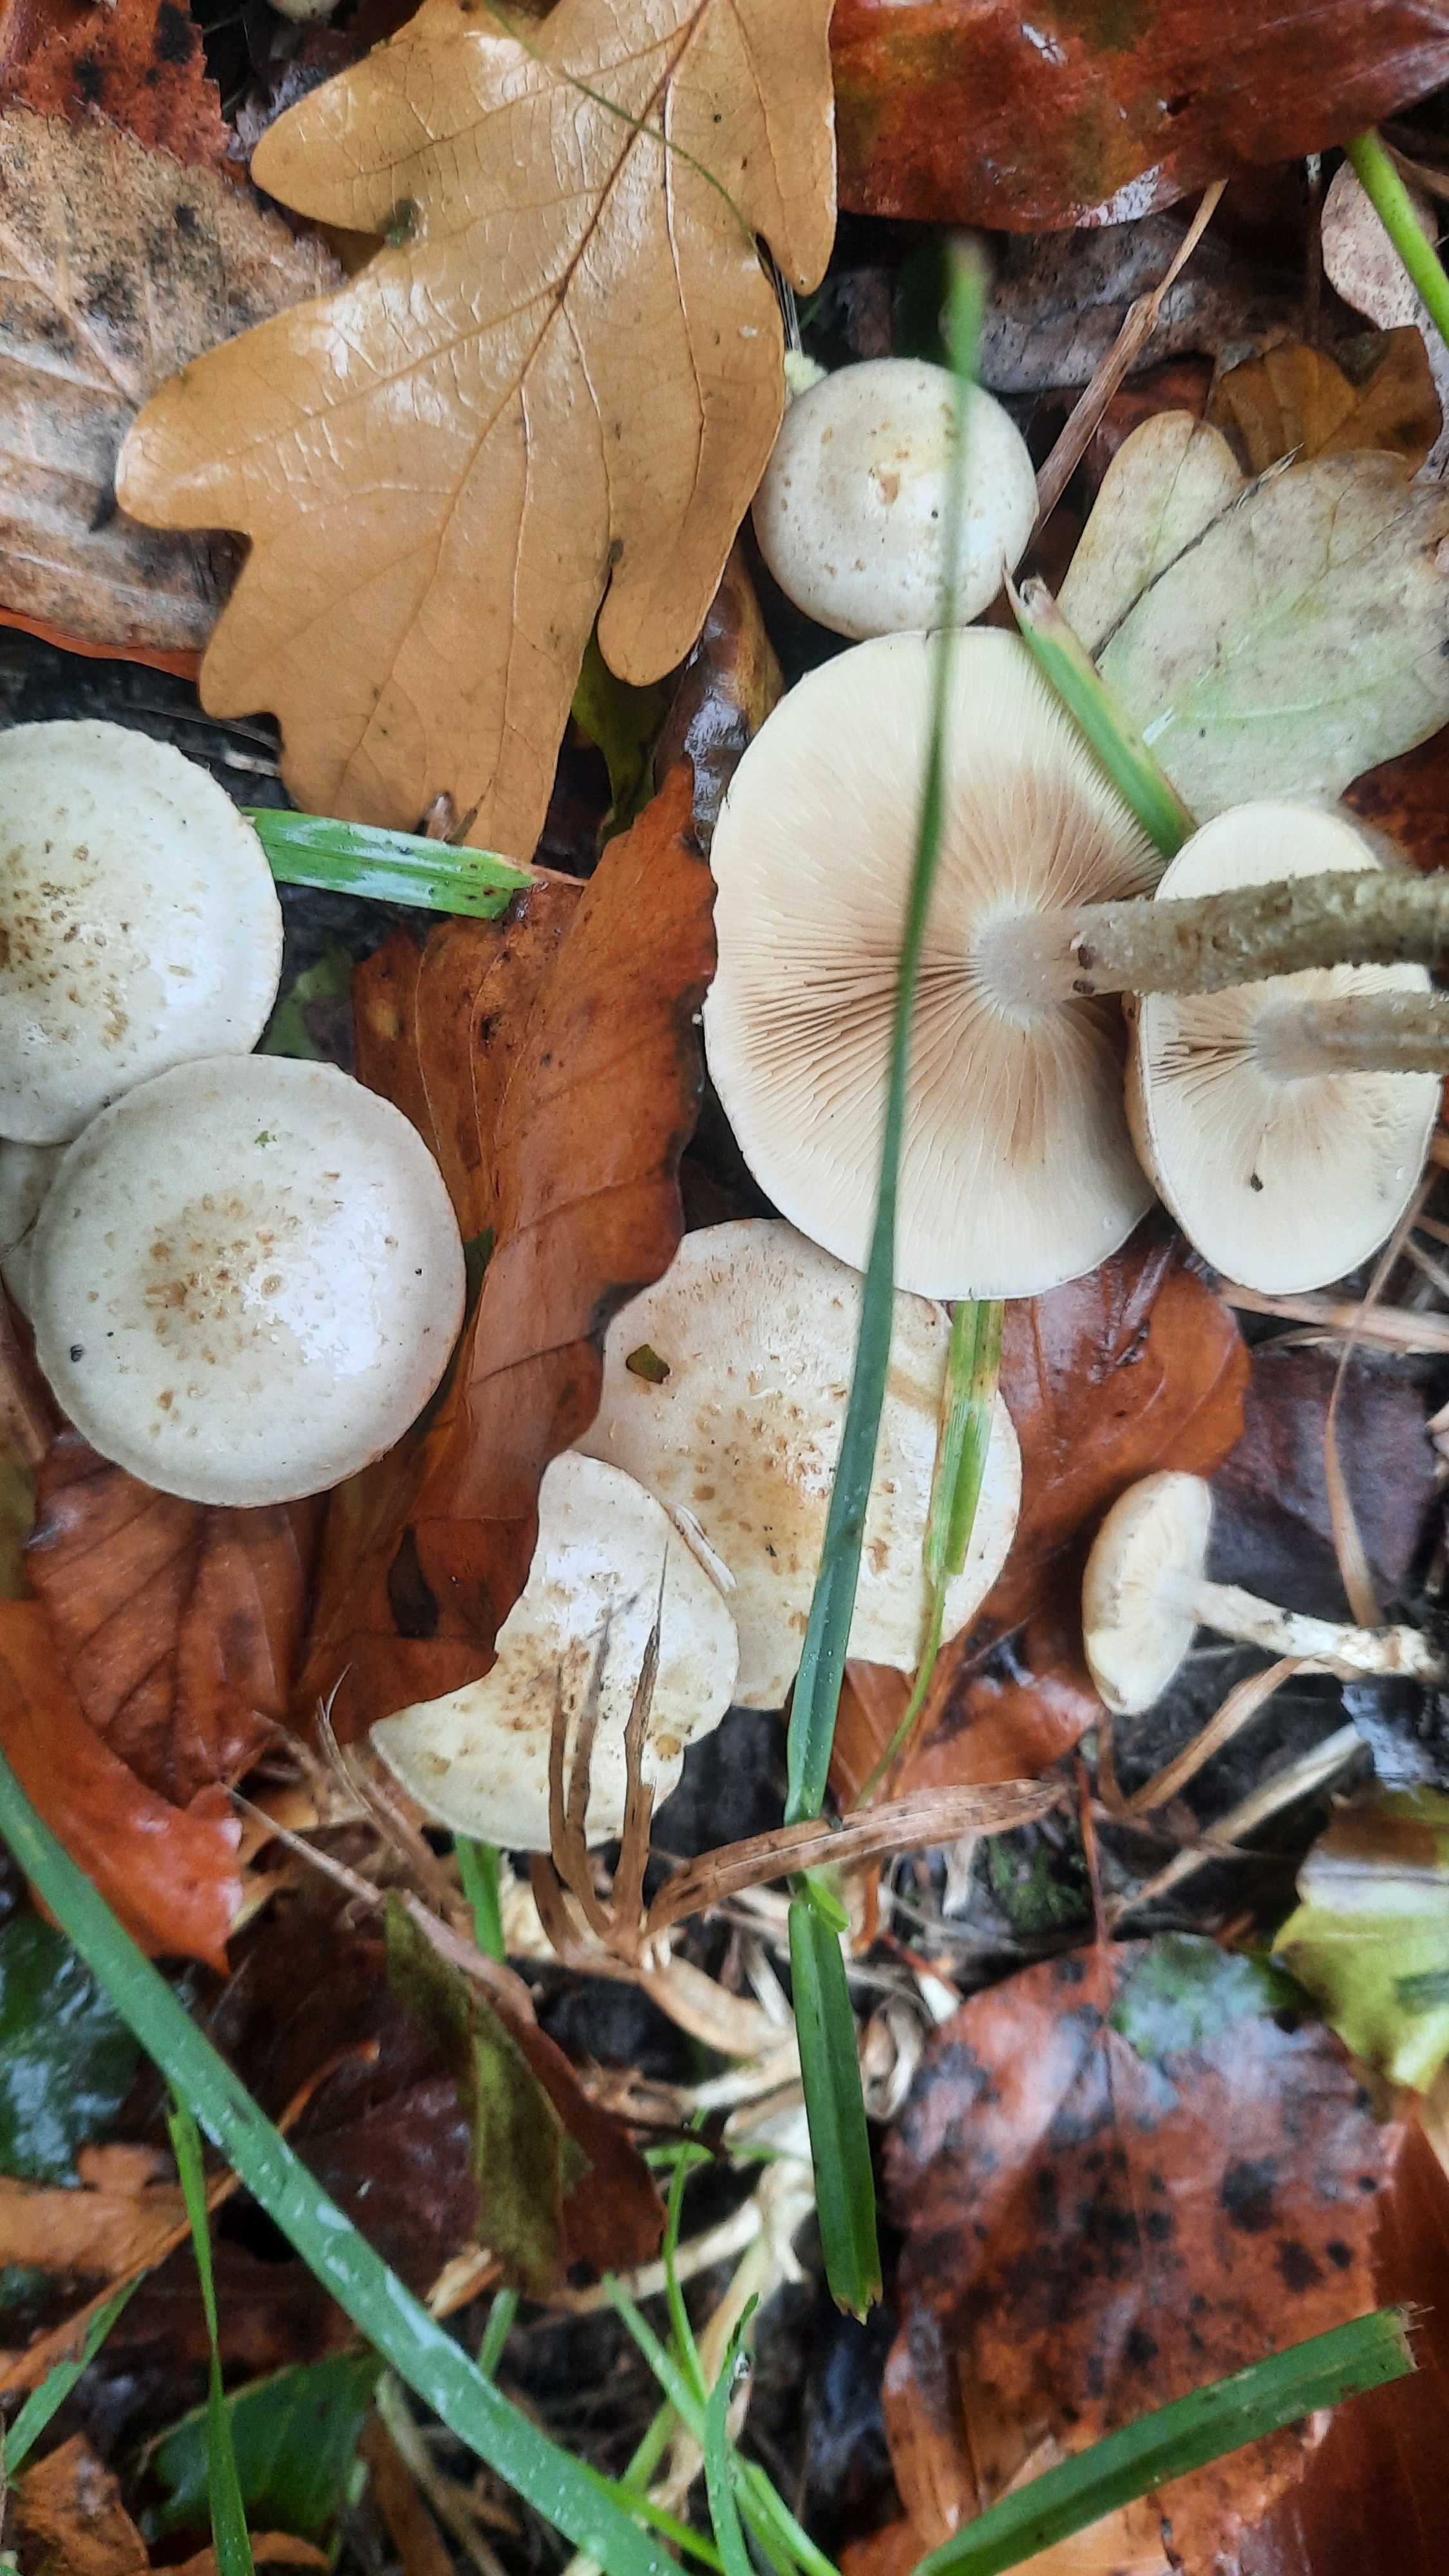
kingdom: Fungi
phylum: Basidiomycota
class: Agaricomycetes
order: Agaricales
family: Strophariaceae
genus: Pholiota
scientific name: Pholiota gummosa
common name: grøngul skælhat
